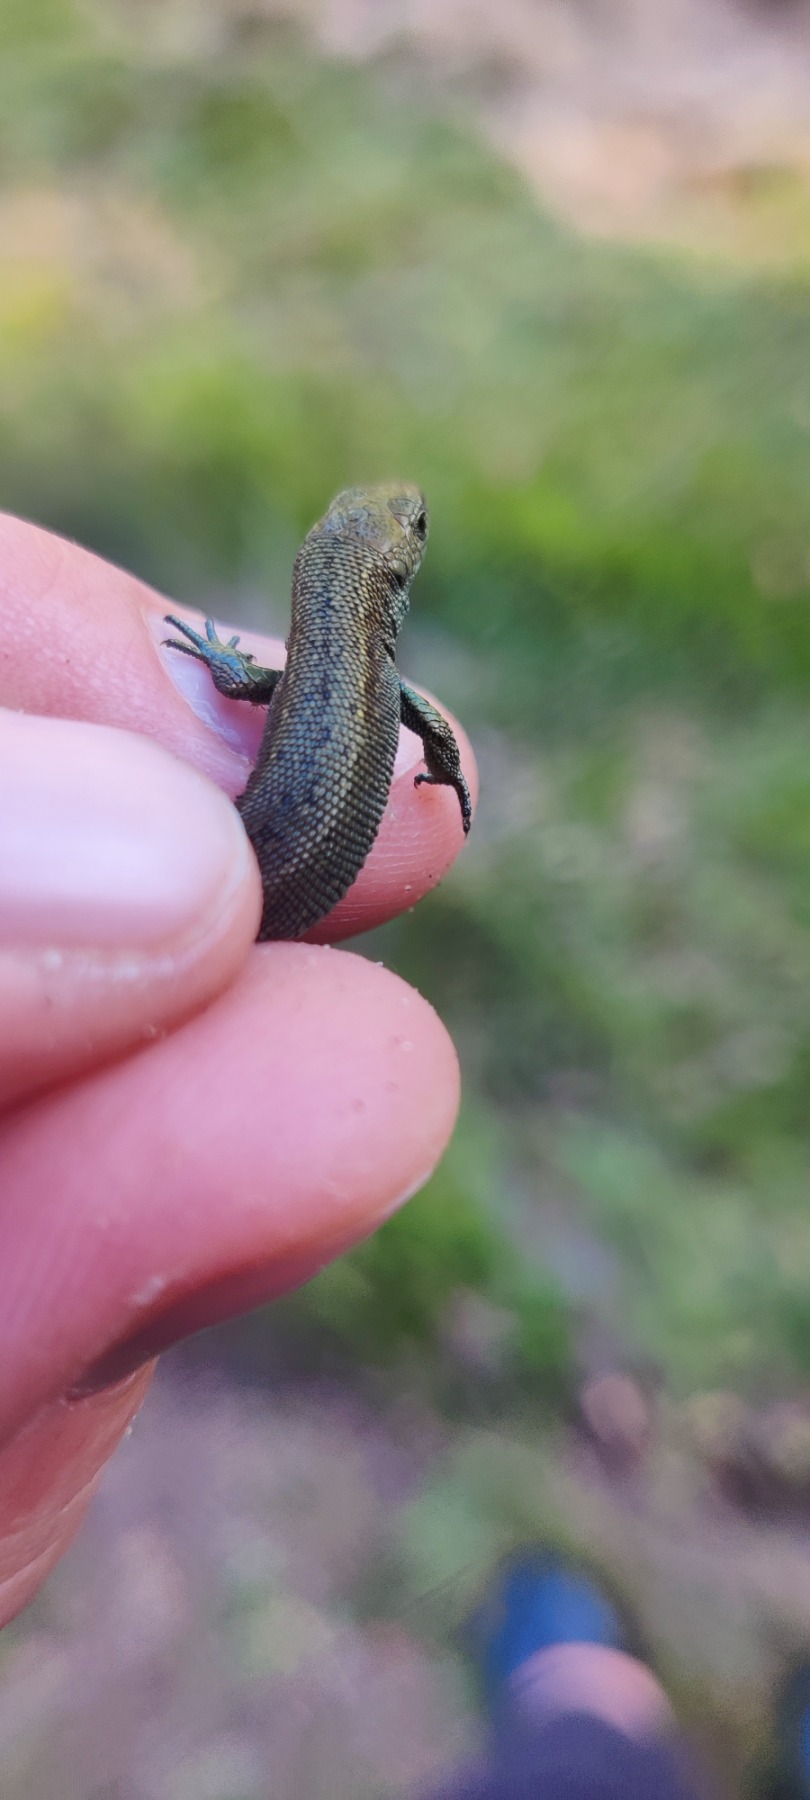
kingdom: Animalia
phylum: Chordata
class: Squamata
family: Lacertidae
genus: Zootoca
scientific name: Zootoca vivipara
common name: Skovfirben
